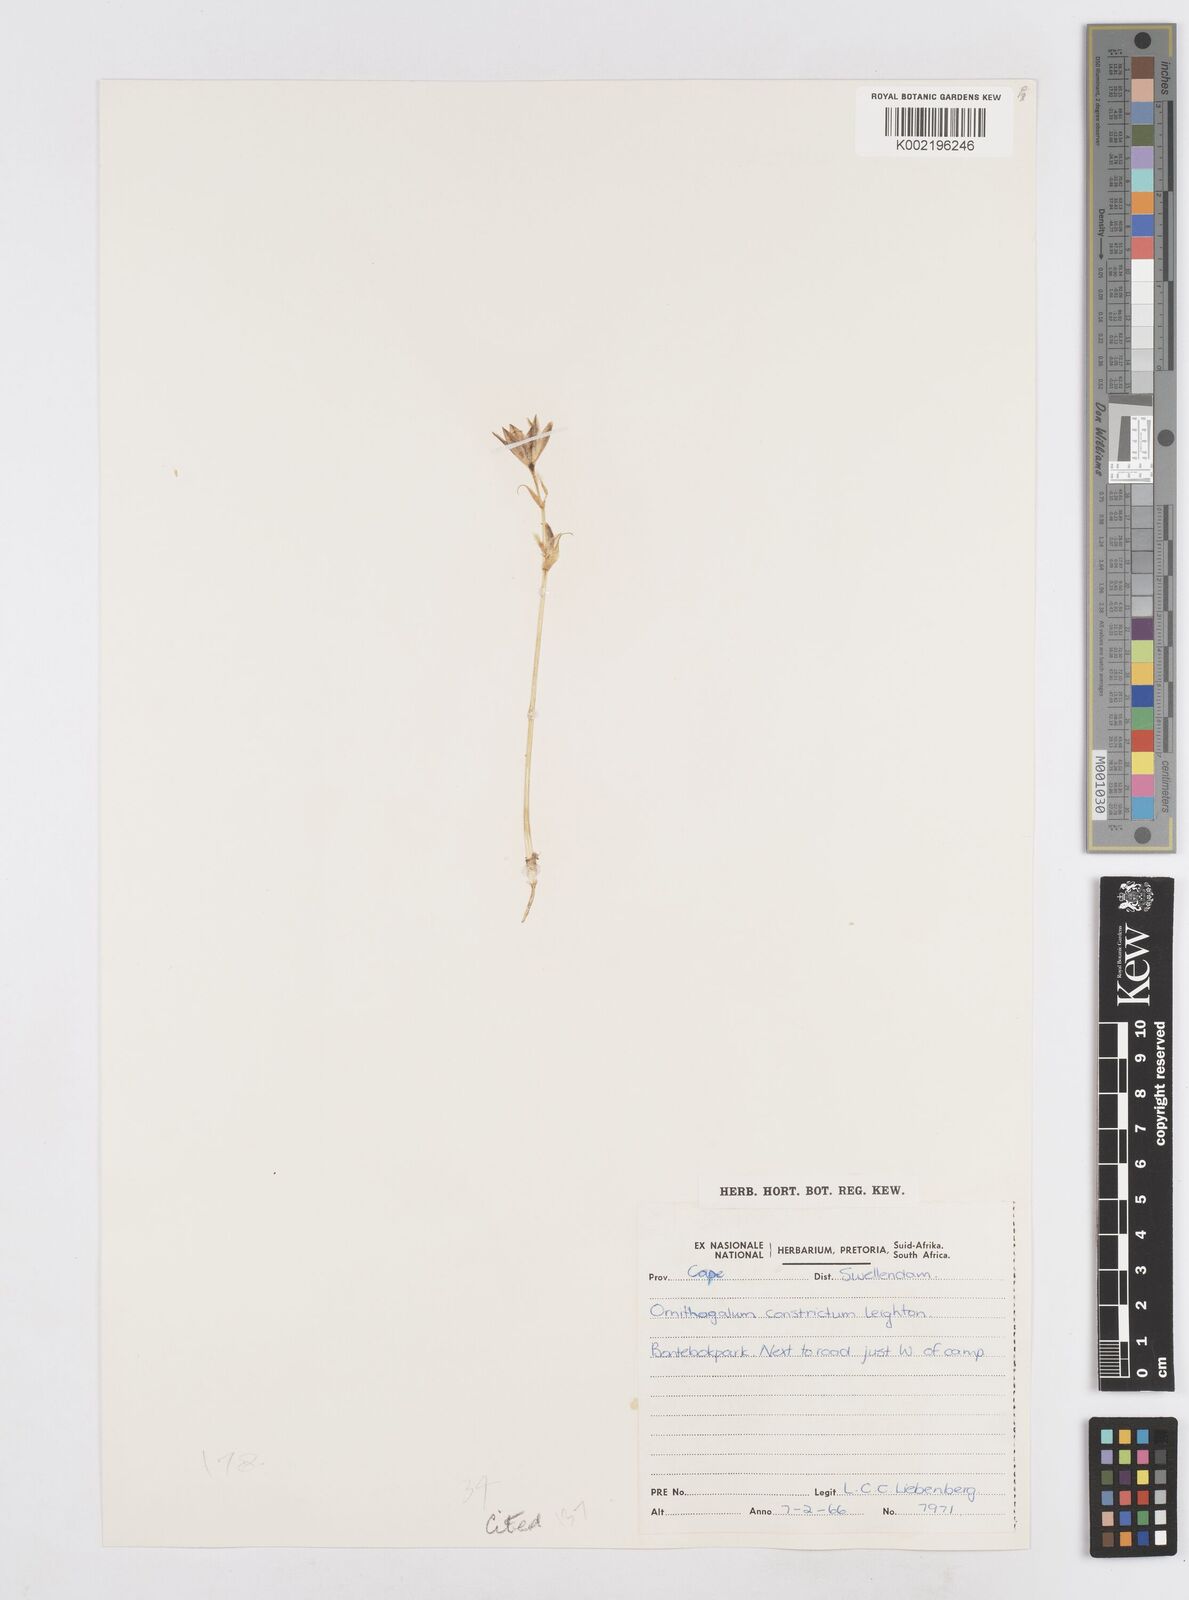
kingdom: Plantae
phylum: Tracheophyta
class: Liliopsida
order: Asparagales
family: Asparagaceae
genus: Ornithogalum
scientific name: Ornithogalum constrictum
